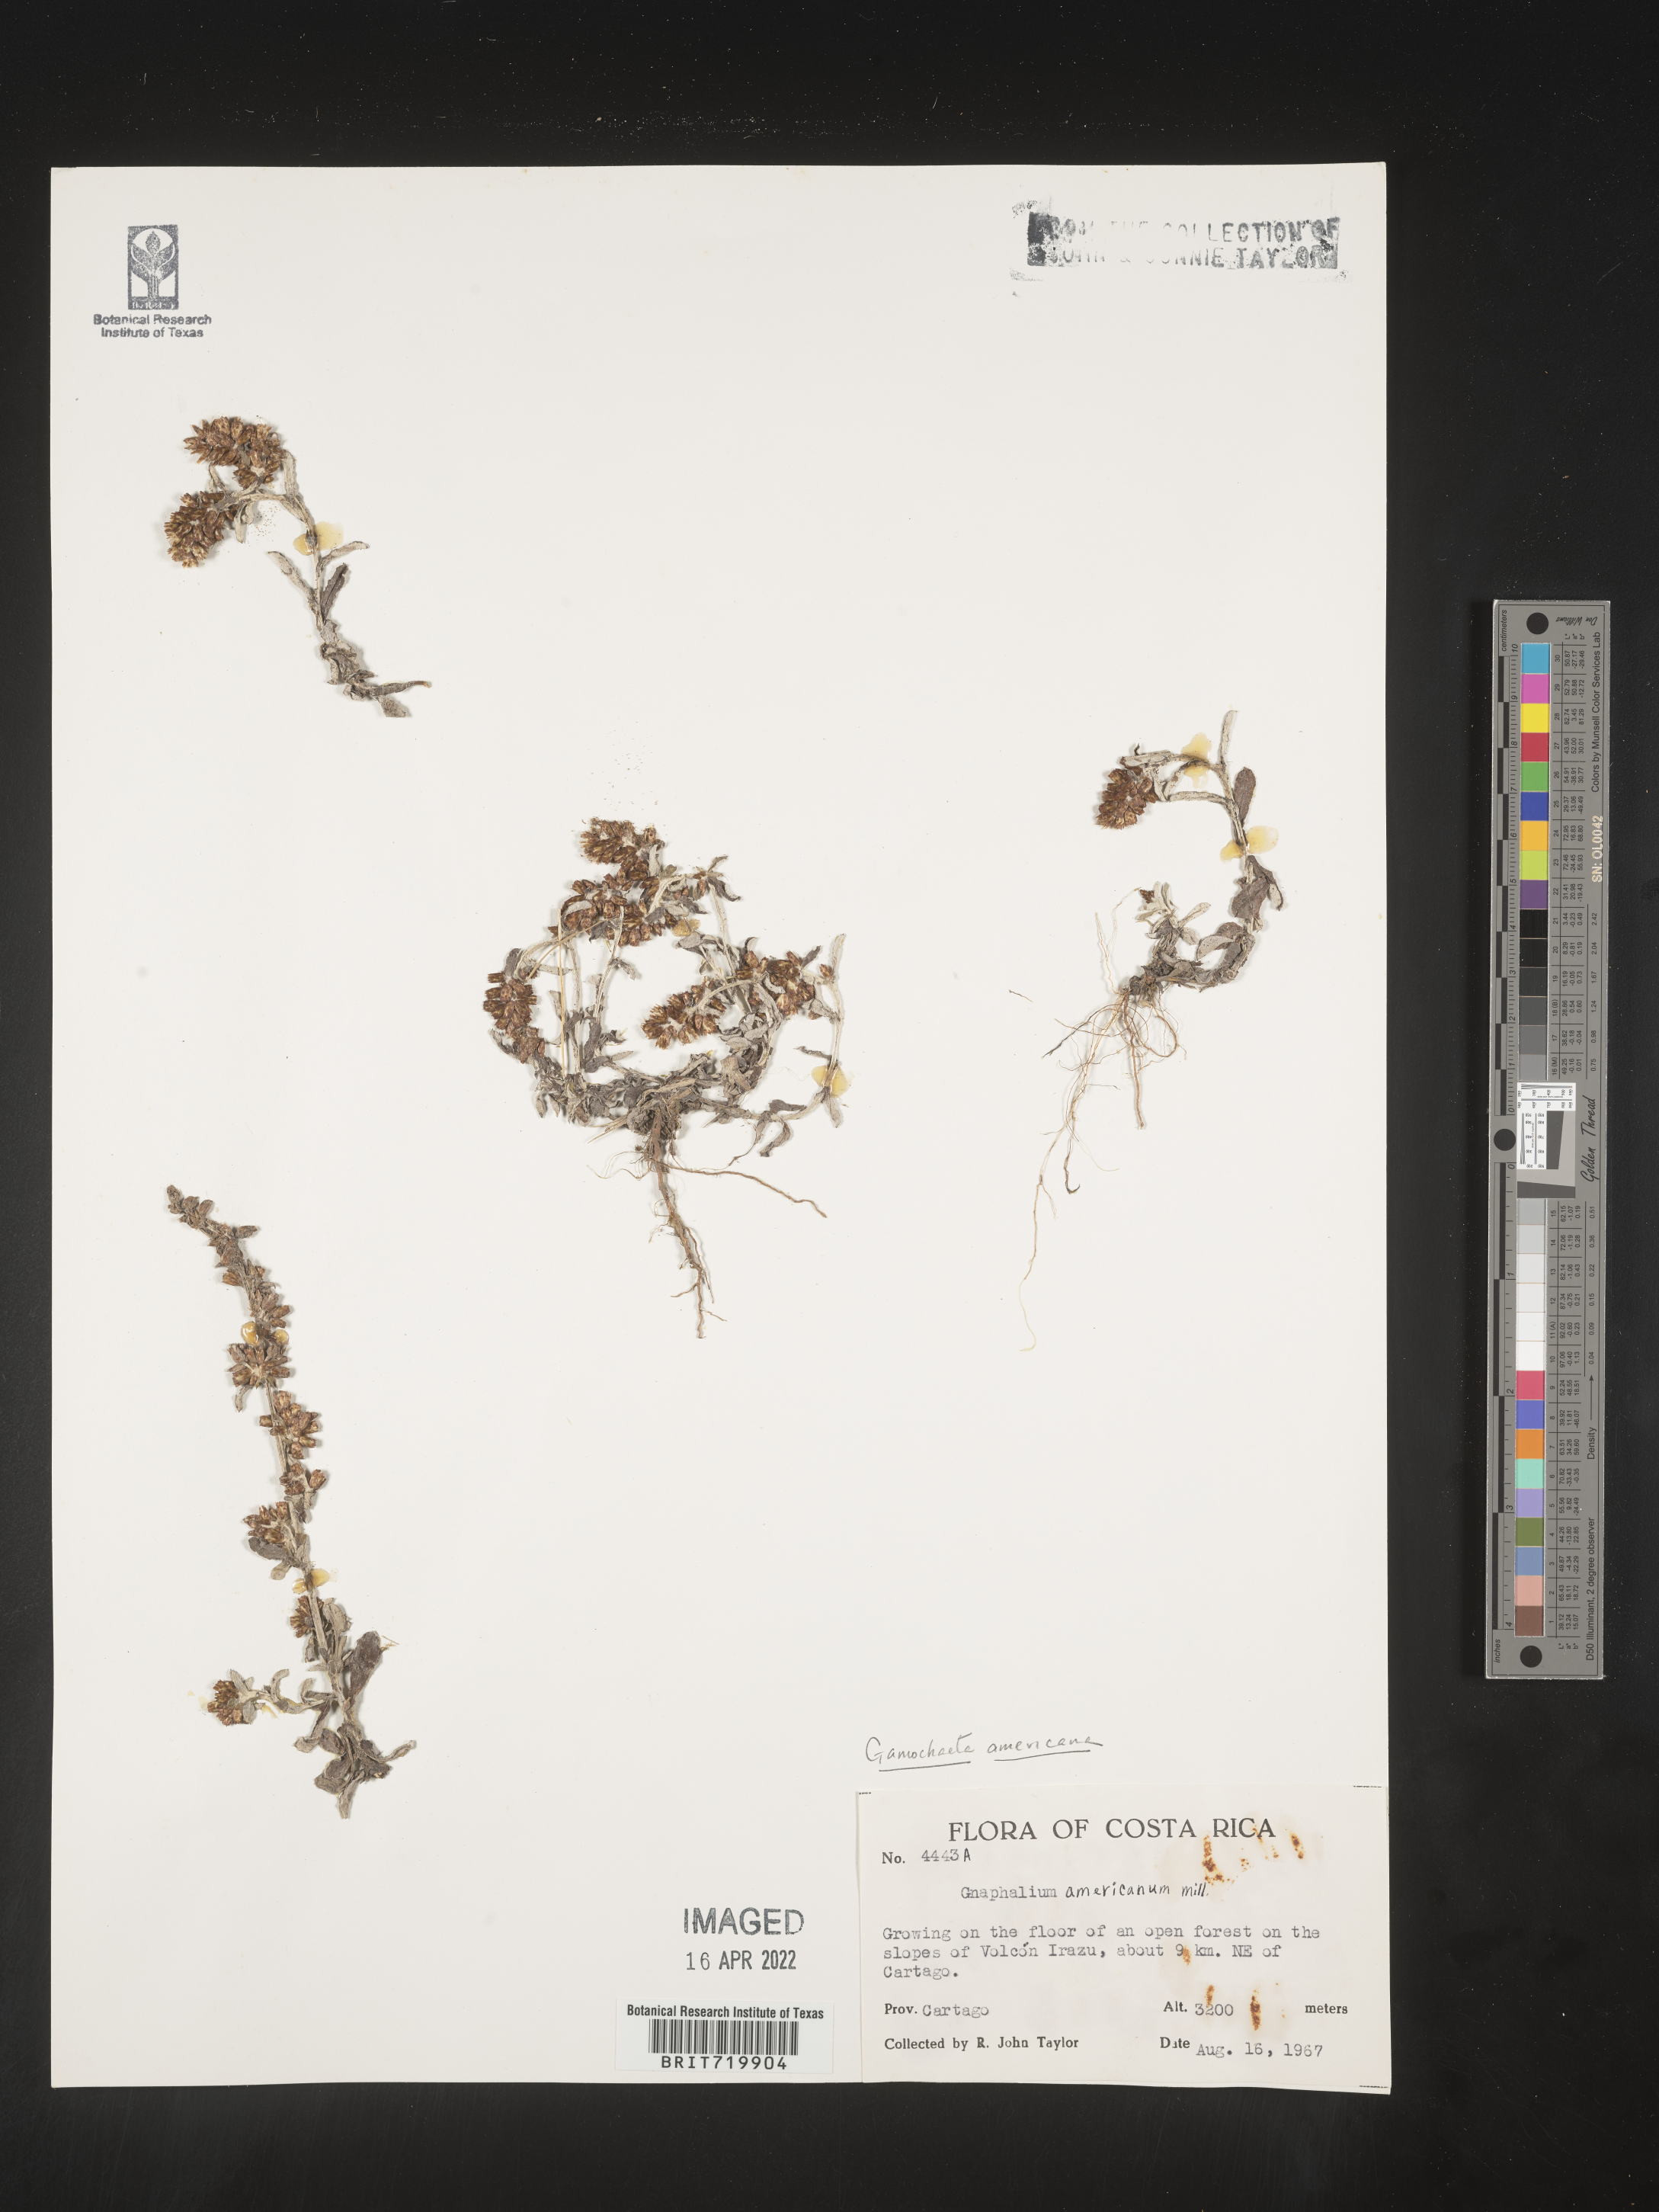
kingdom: Plantae
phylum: Tracheophyta
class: Magnoliopsida
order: Asterales
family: Asteraceae
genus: Gamochaeta
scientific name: Gamochaeta
